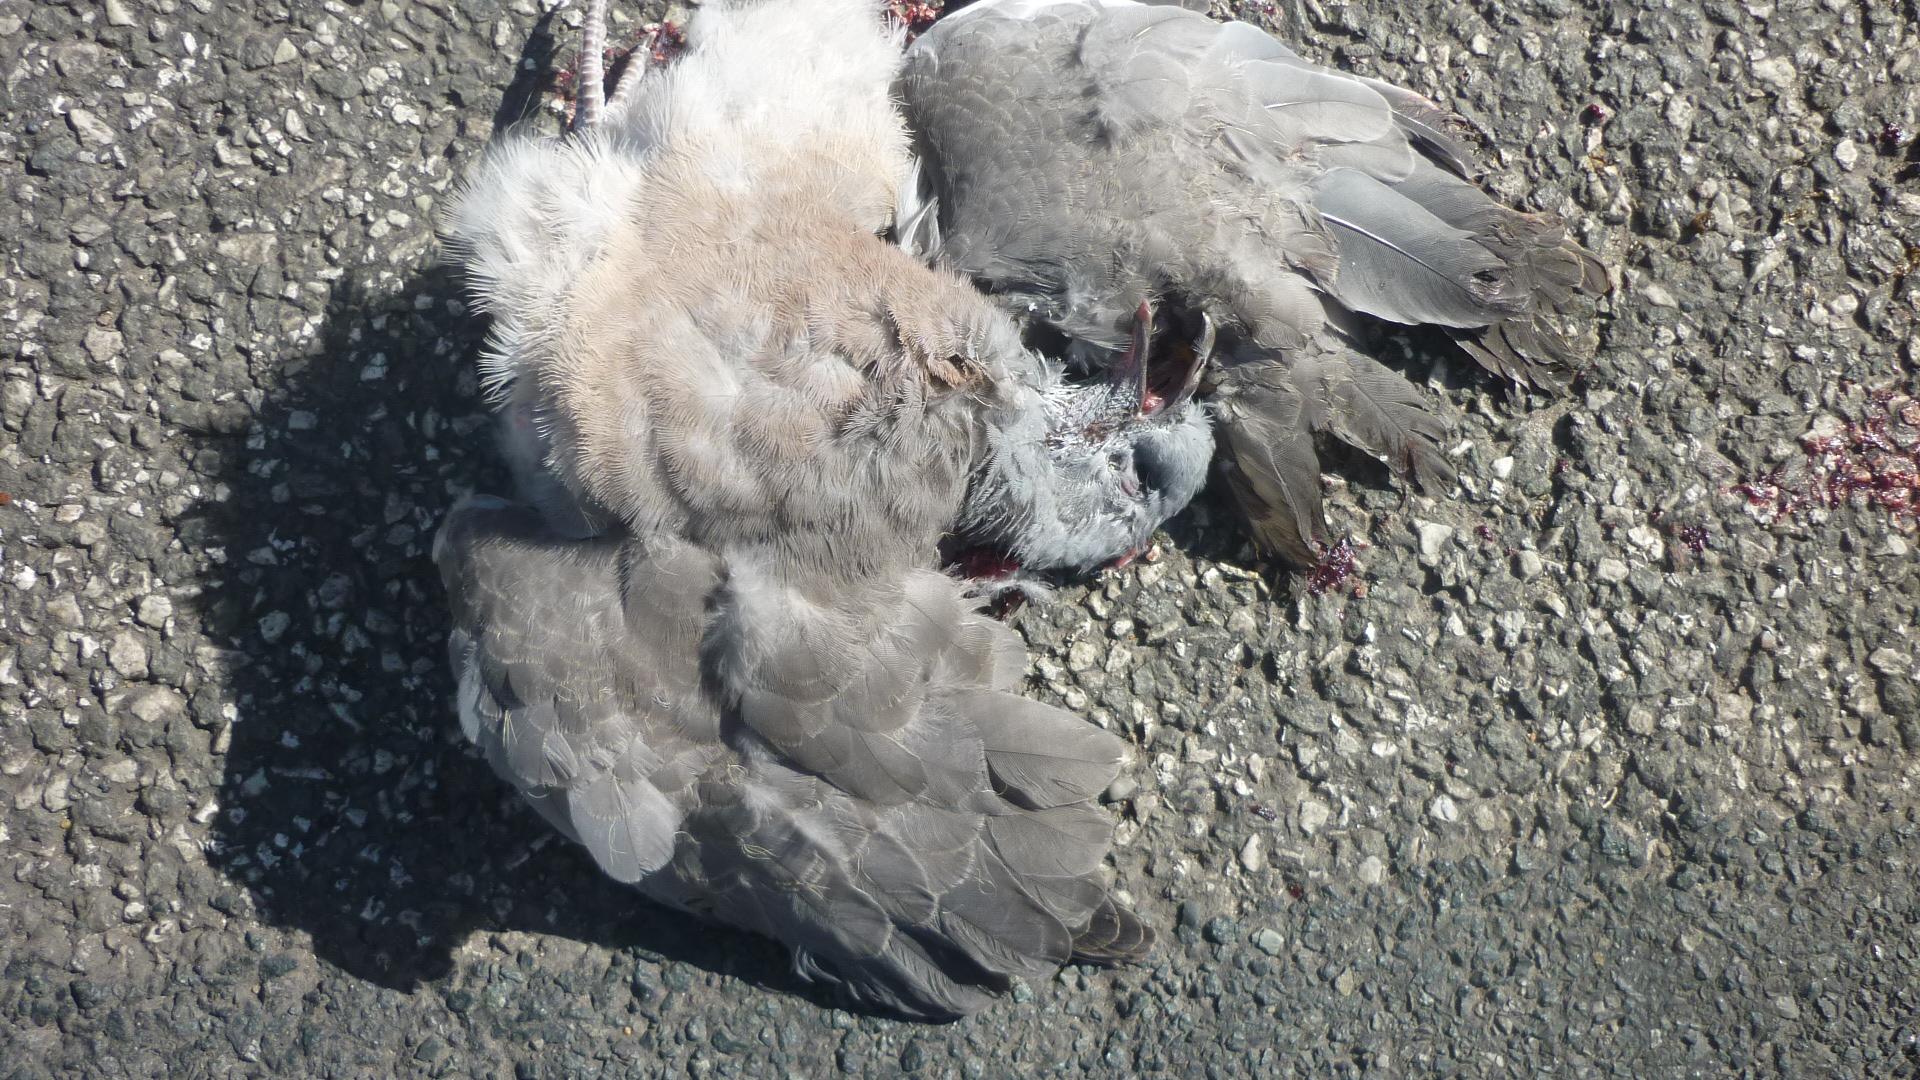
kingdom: Animalia
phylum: Chordata
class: Aves
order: Columbiformes
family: Columbidae
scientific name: Columbidae
